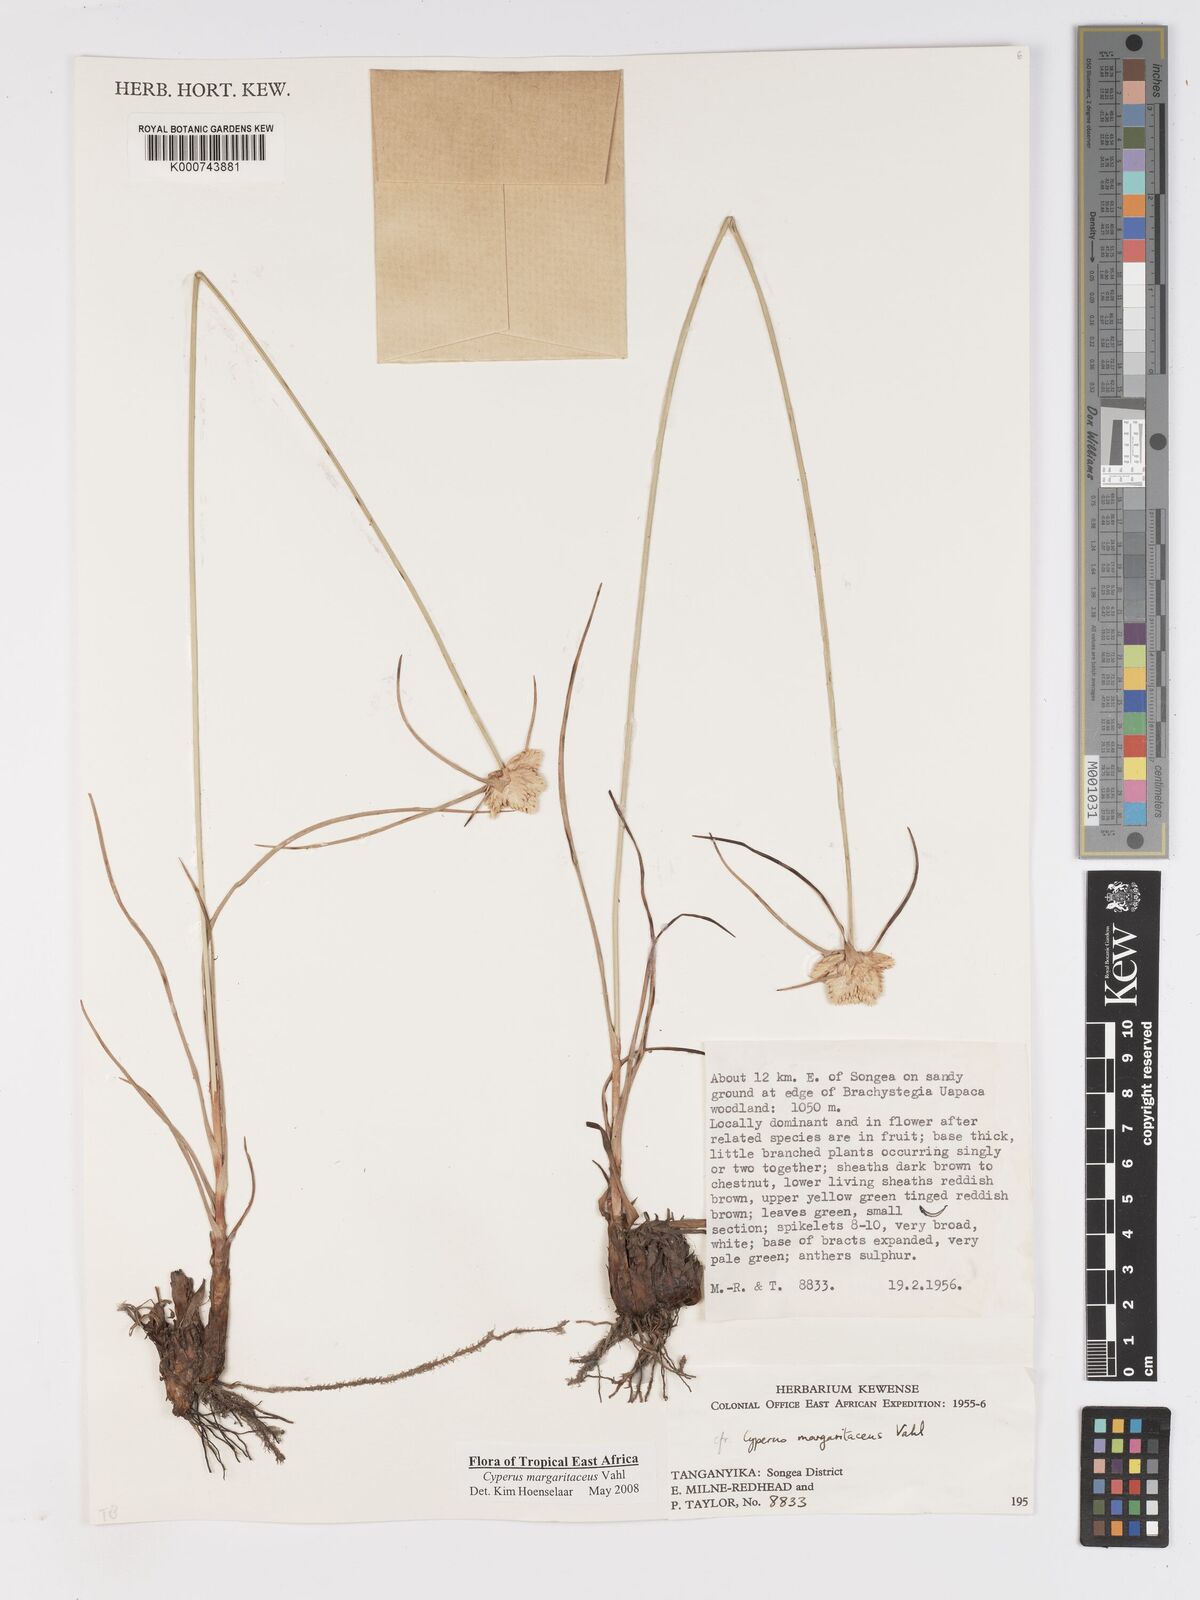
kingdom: Plantae
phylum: Tracheophyta
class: Liliopsida
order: Poales
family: Cyperaceae
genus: Cyperus
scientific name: Cyperus margaritaceus
